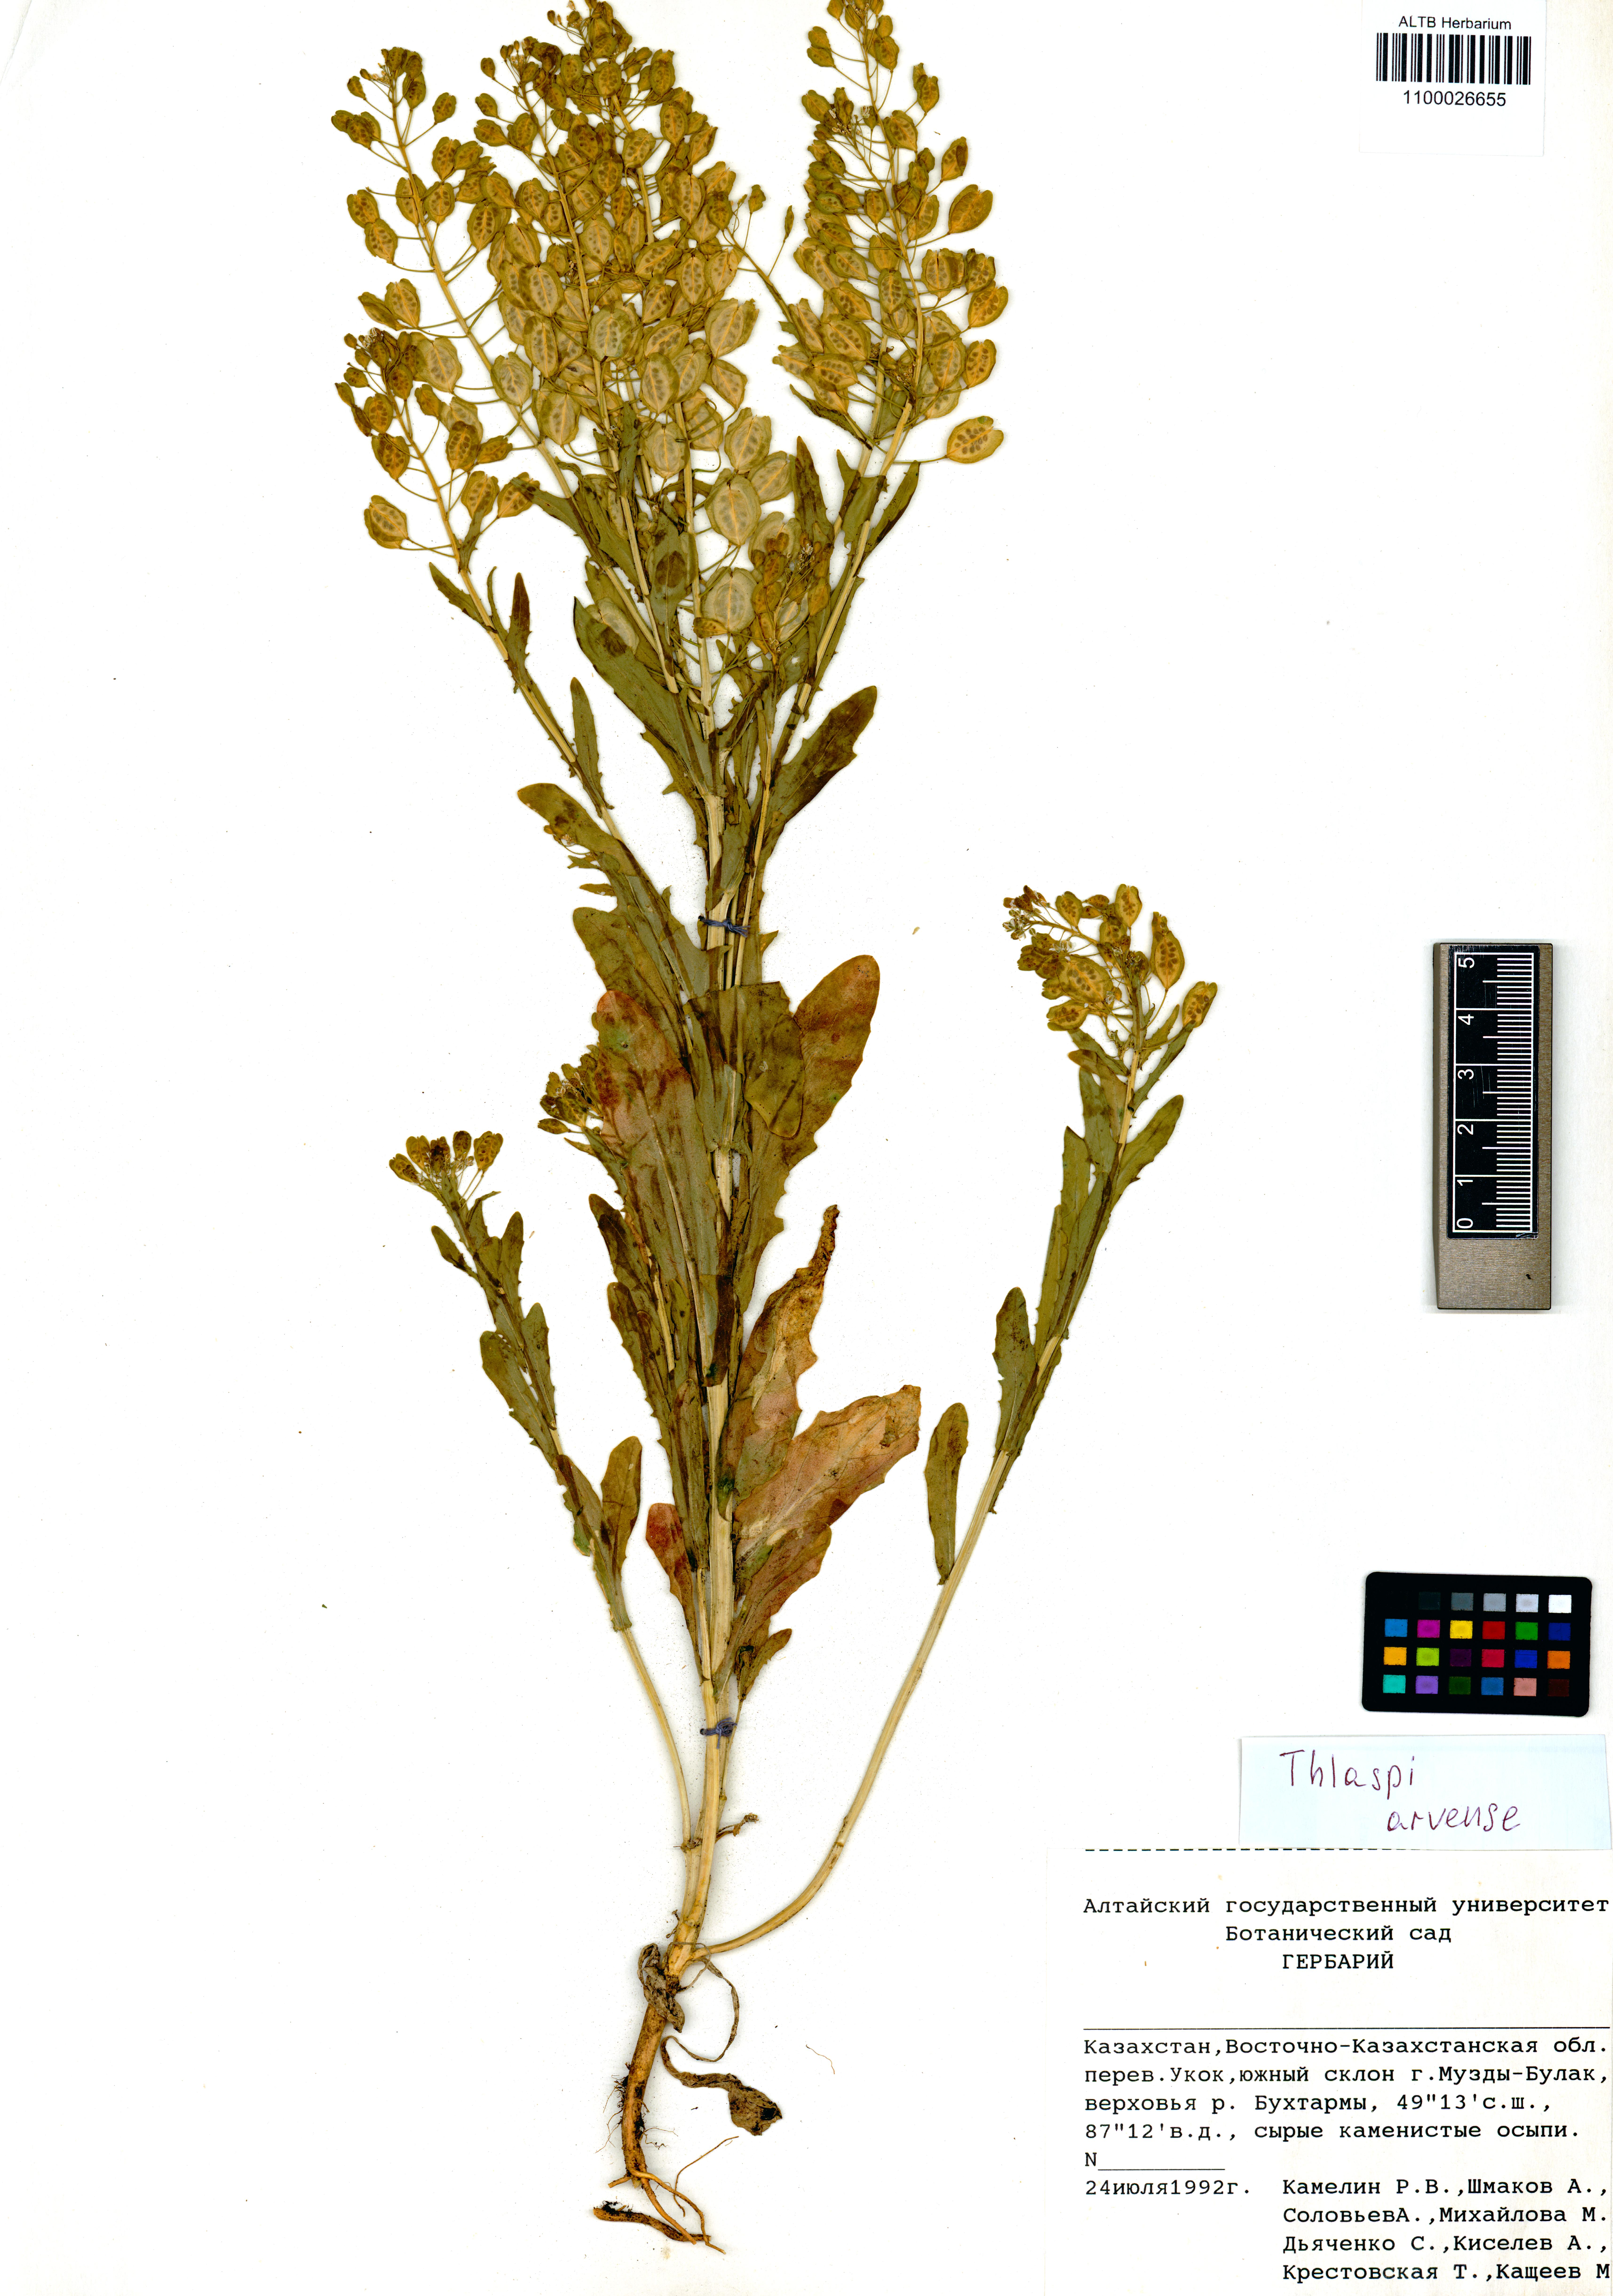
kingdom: Plantae
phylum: Tracheophyta
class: Magnoliopsida
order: Brassicales
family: Brassicaceae
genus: Thlaspi
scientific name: Thlaspi arvense
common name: Field pennycress
